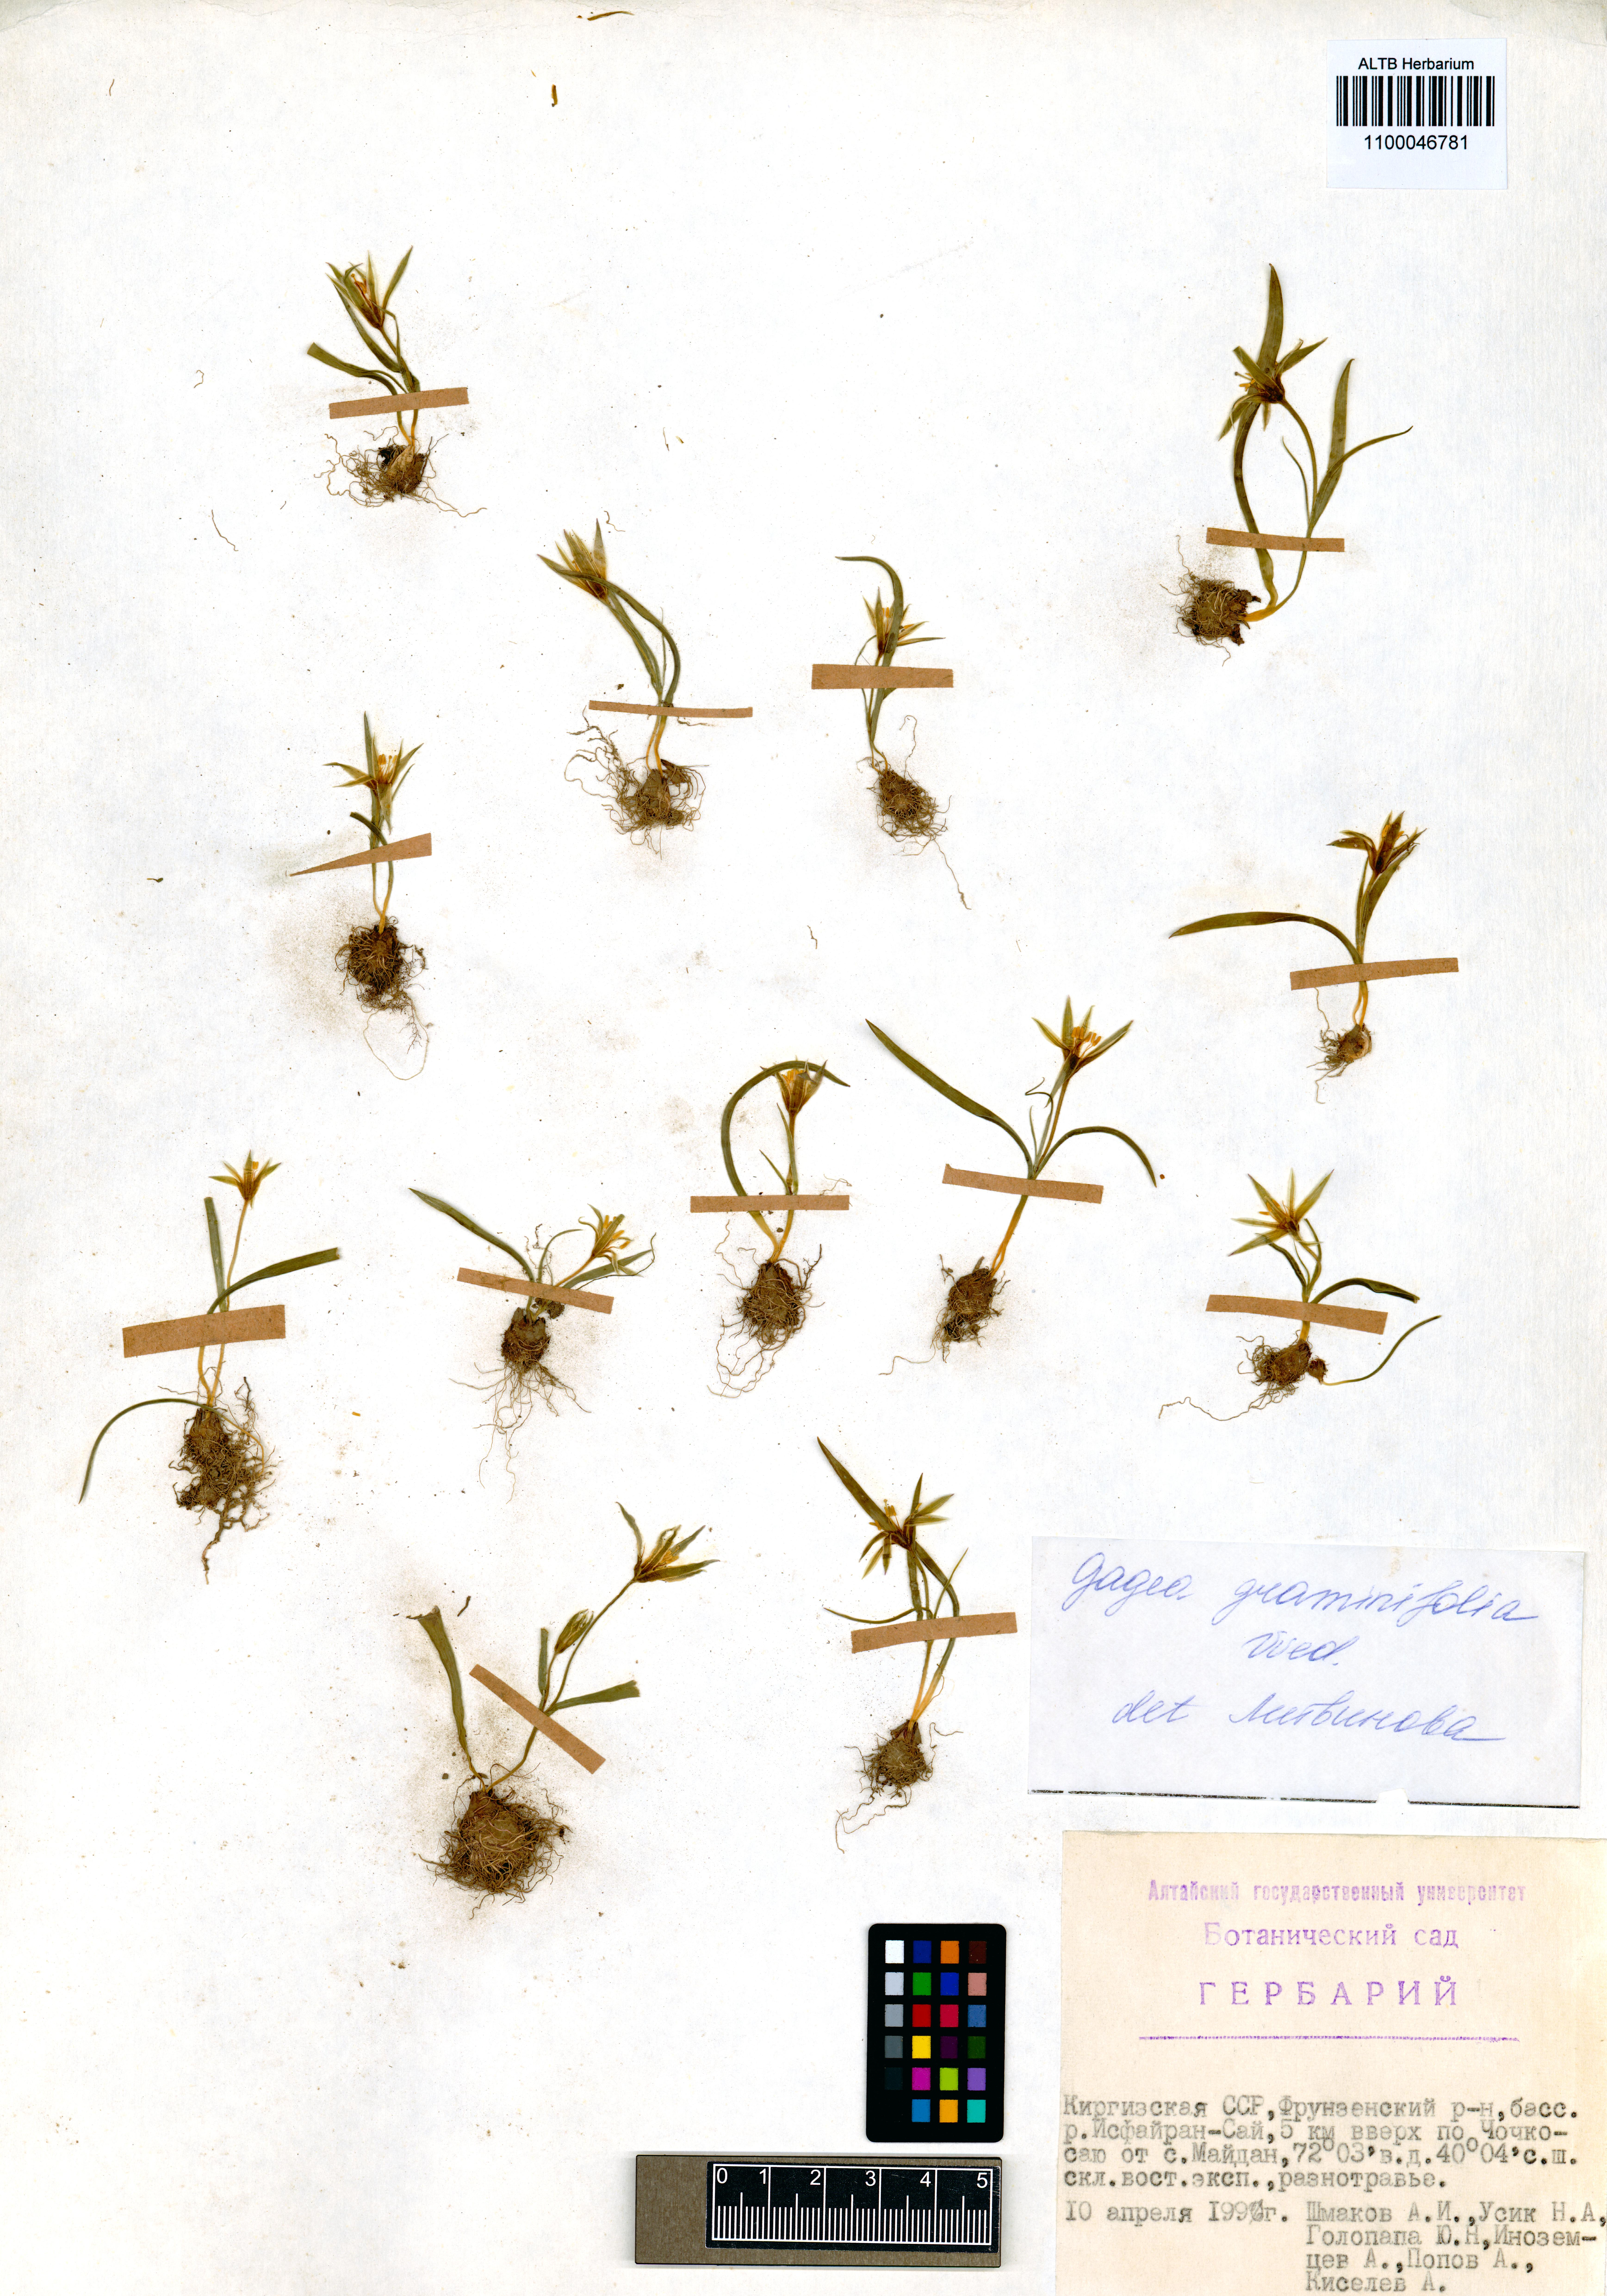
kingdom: Plantae
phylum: Tracheophyta
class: Liliopsida
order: Liliales
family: Liliaceae
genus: Gagea
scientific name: Gagea graminifolia
